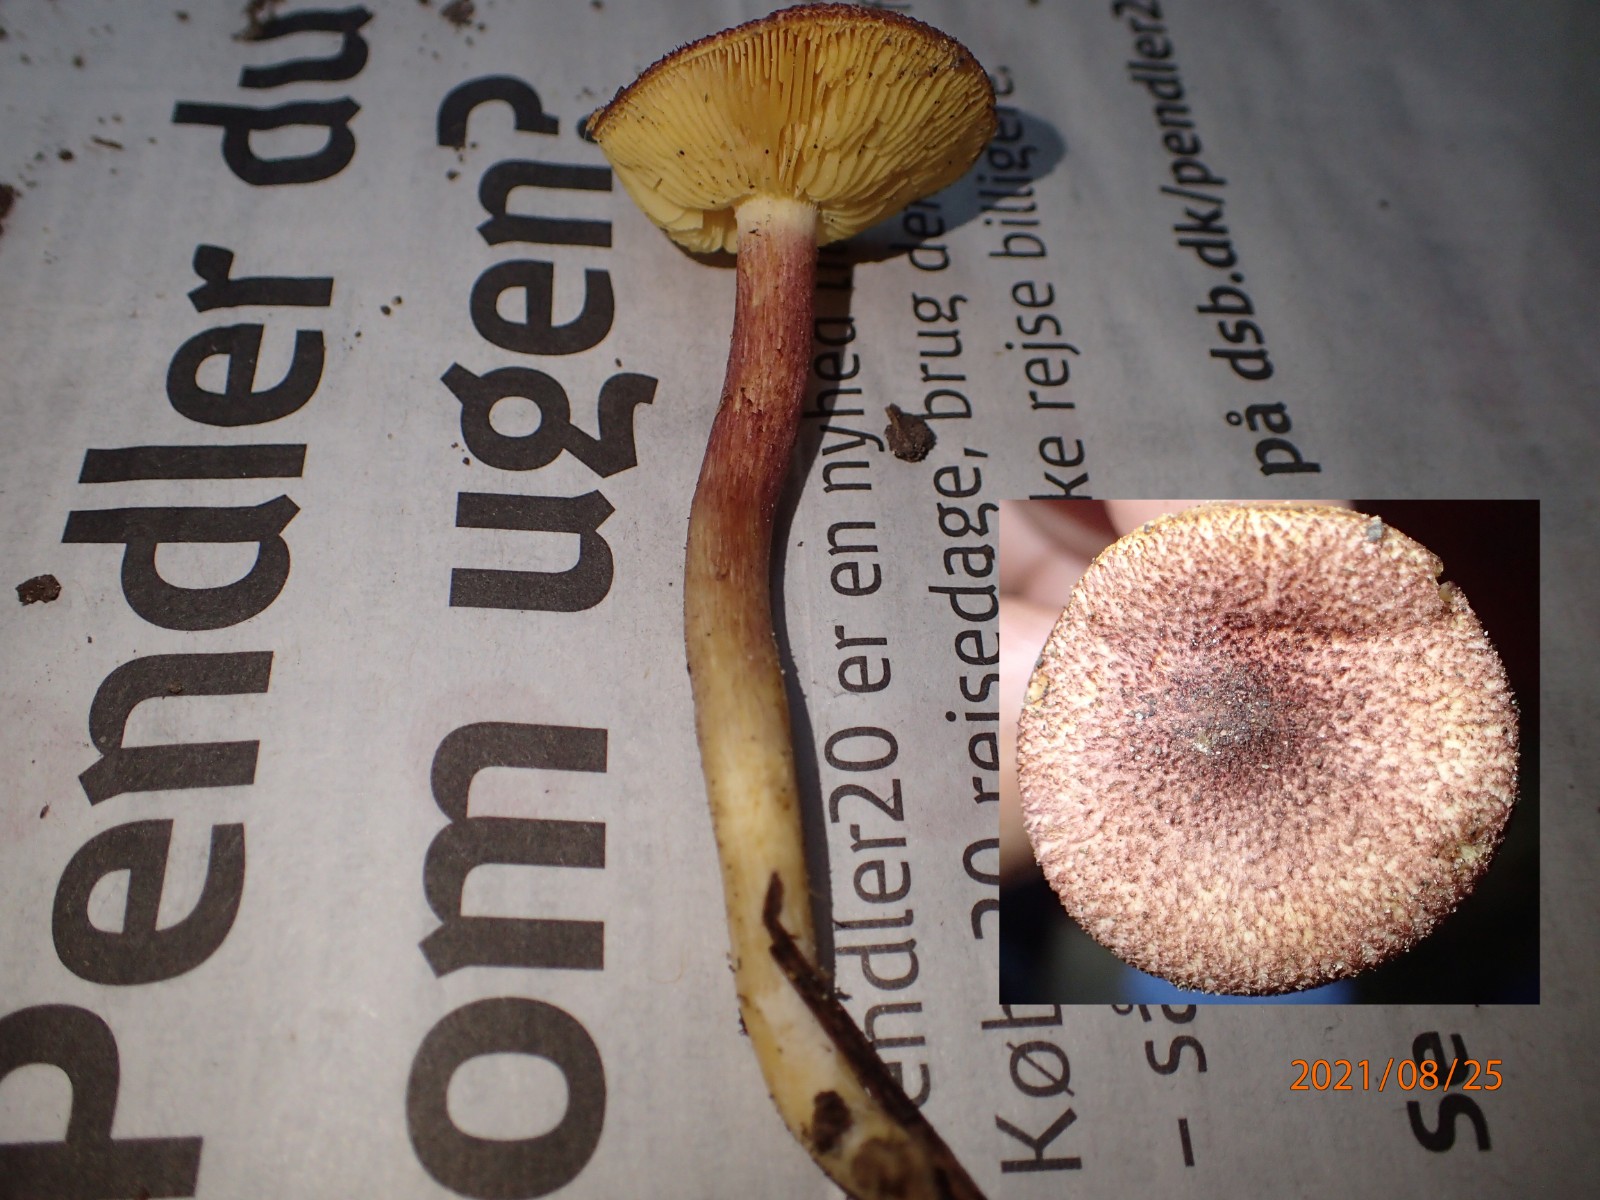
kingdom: Fungi
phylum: Basidiomycota
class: Agaricomycetes
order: Agaricales
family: Tricholomataceae
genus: Tricholomopsis
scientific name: Tricholomopsis
